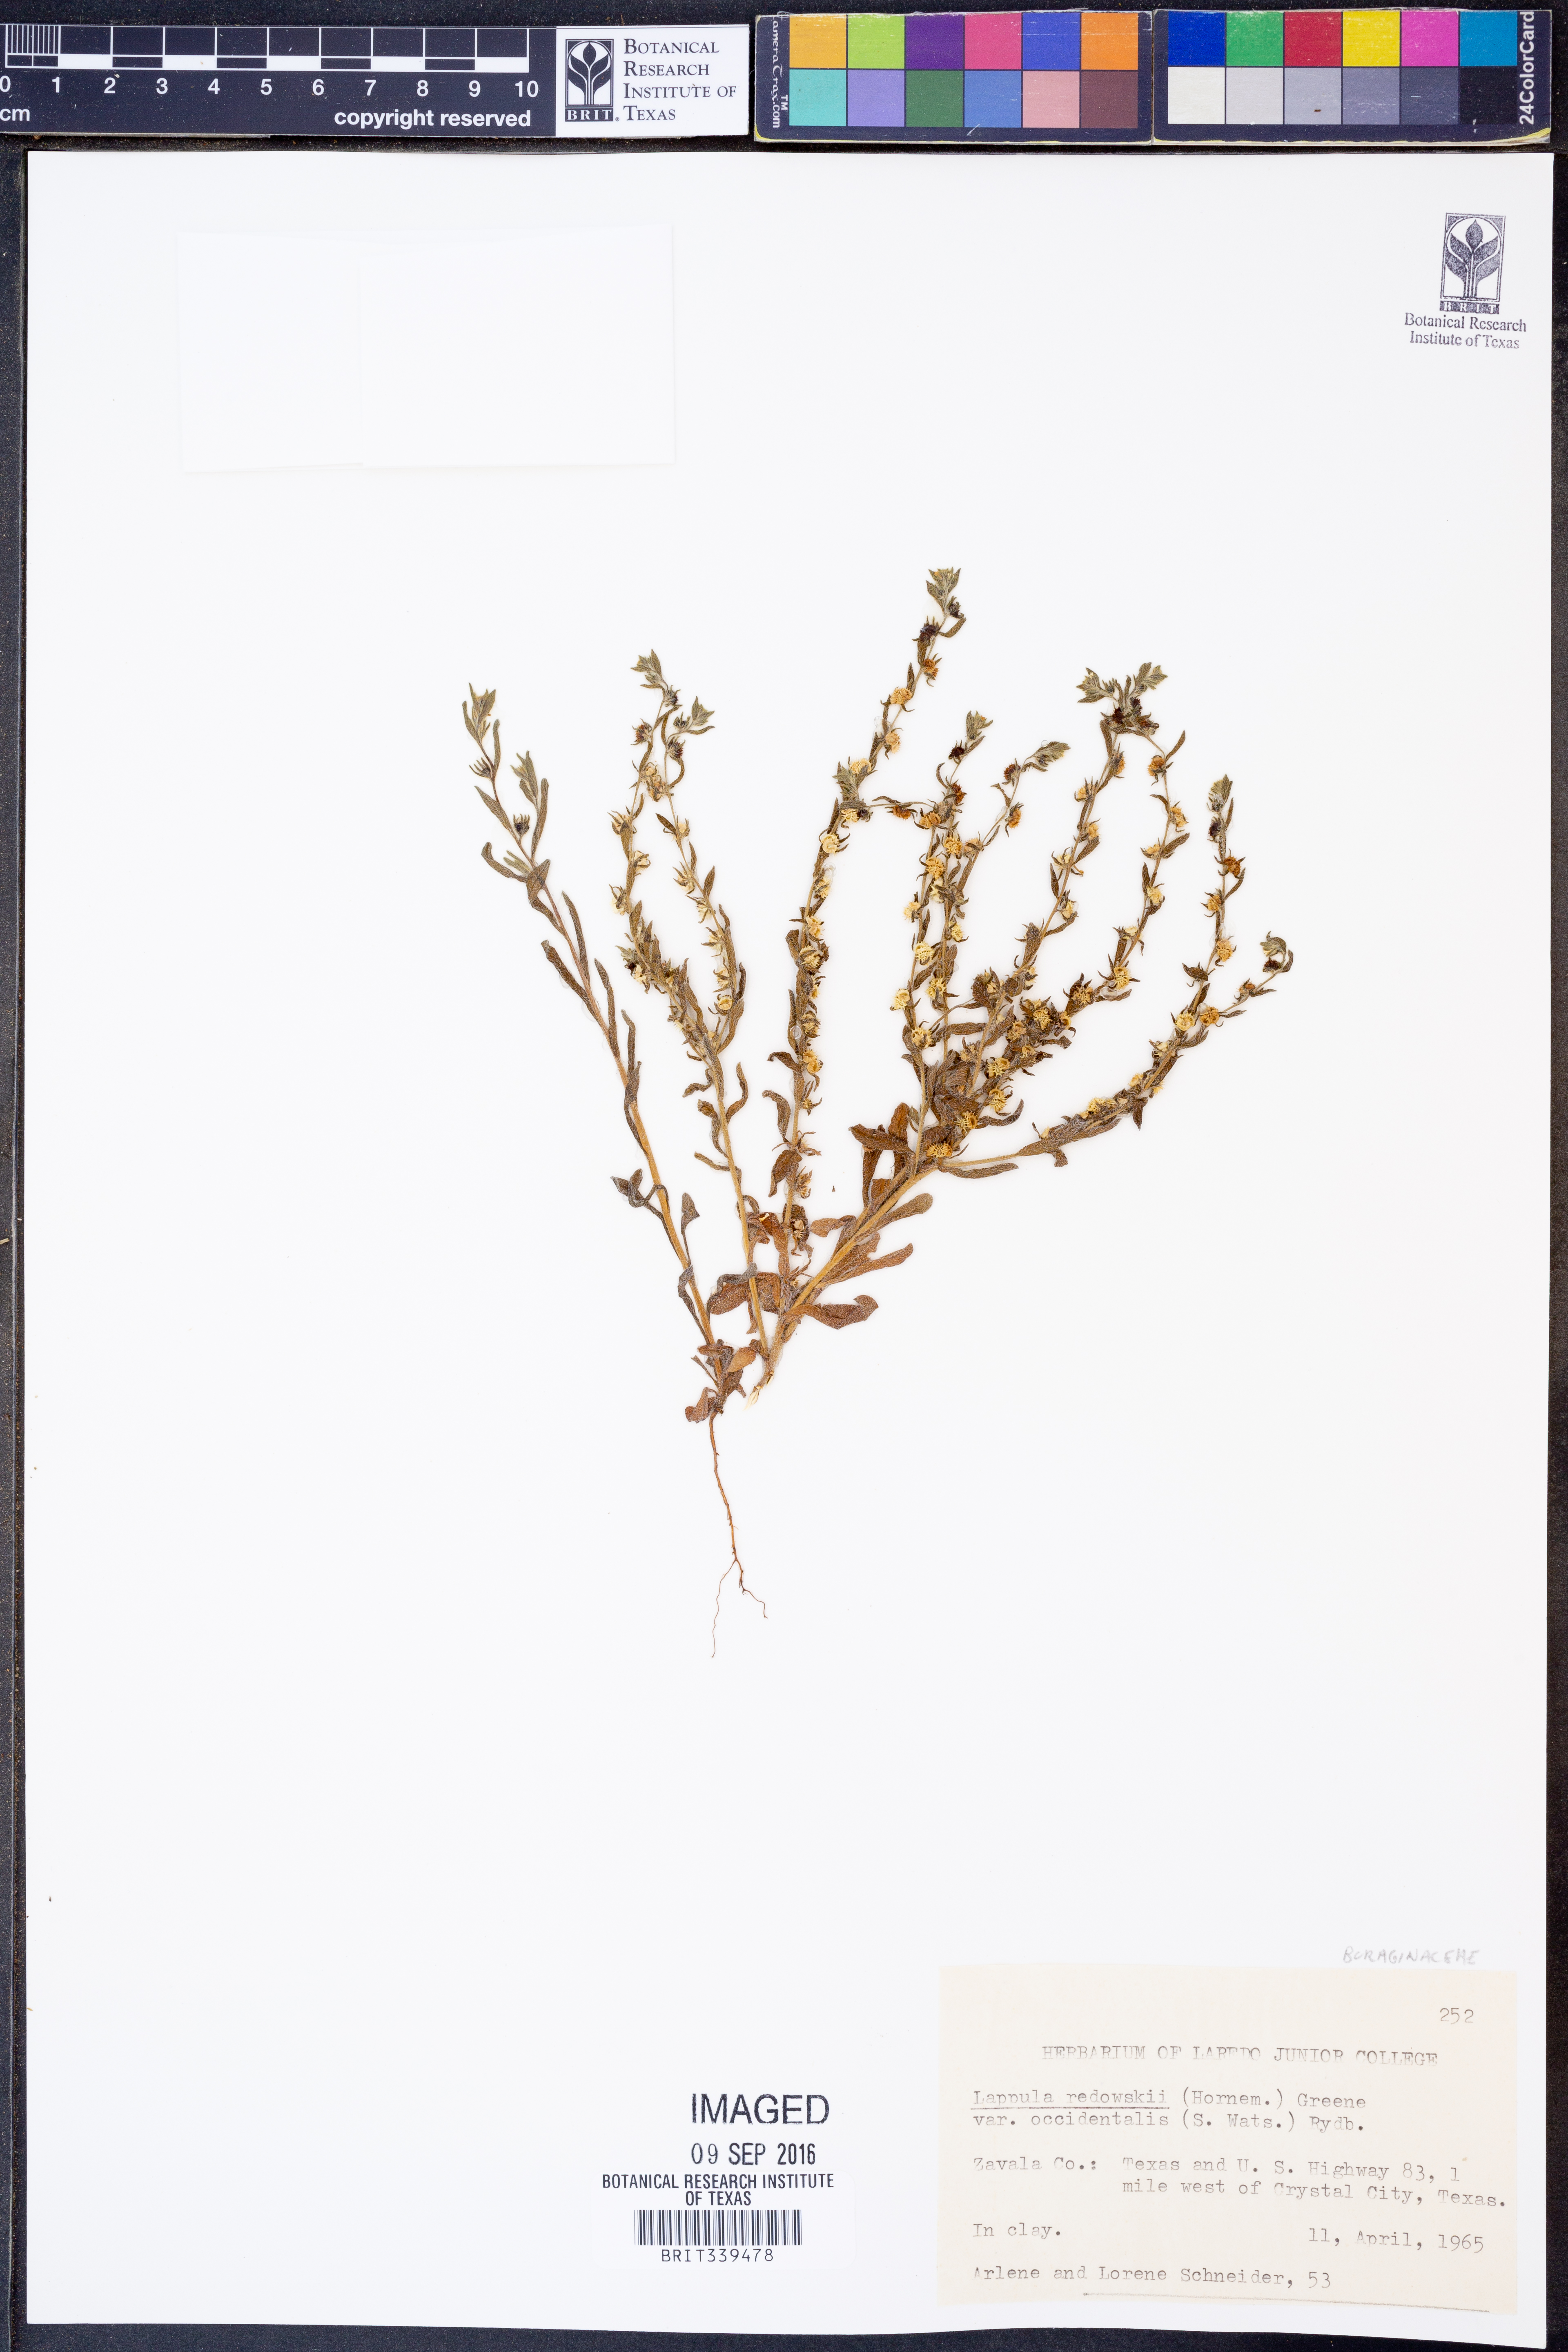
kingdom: Plantae
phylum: Tracheophyta
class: Magnoliopsida
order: Boraginales
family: Boraginaceae
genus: Lappula
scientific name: Lappula occidentalis
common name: Western stickseed
